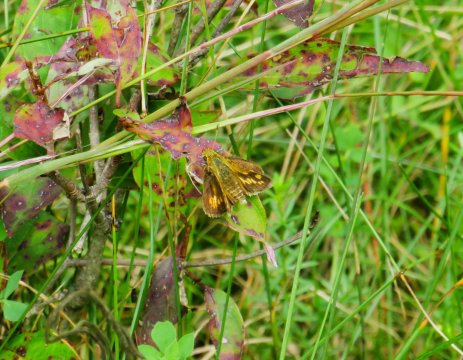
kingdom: Animalia
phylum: Arthropoda
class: Insecta
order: Lepidoptera
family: Hesperiidae
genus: Polites
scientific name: Polites coras
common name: Peck's Skipper
